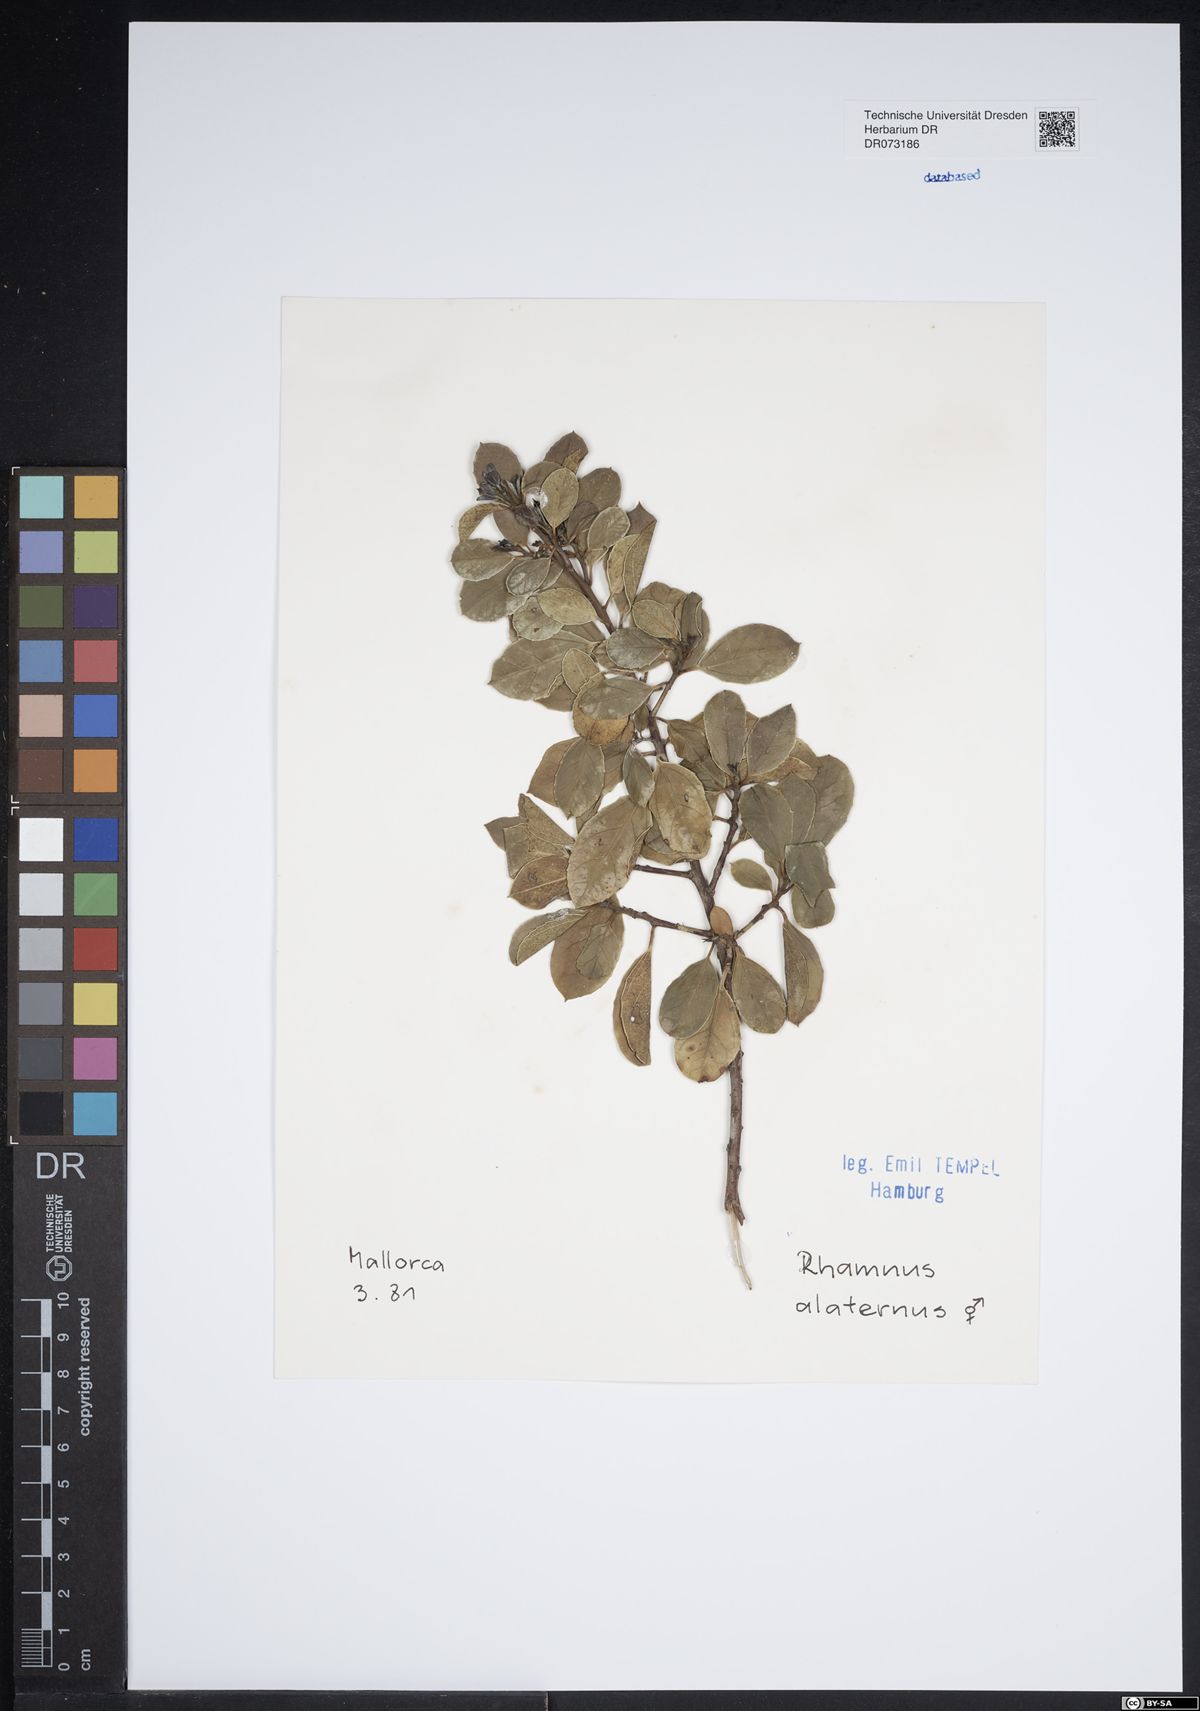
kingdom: Plantae
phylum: Tracheophyta
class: Magnoliopsida
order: Rosales
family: Rhamnaceae
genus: Rhamnus
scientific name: Rhamnus alaternus
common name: Mediterranean buckthorn
